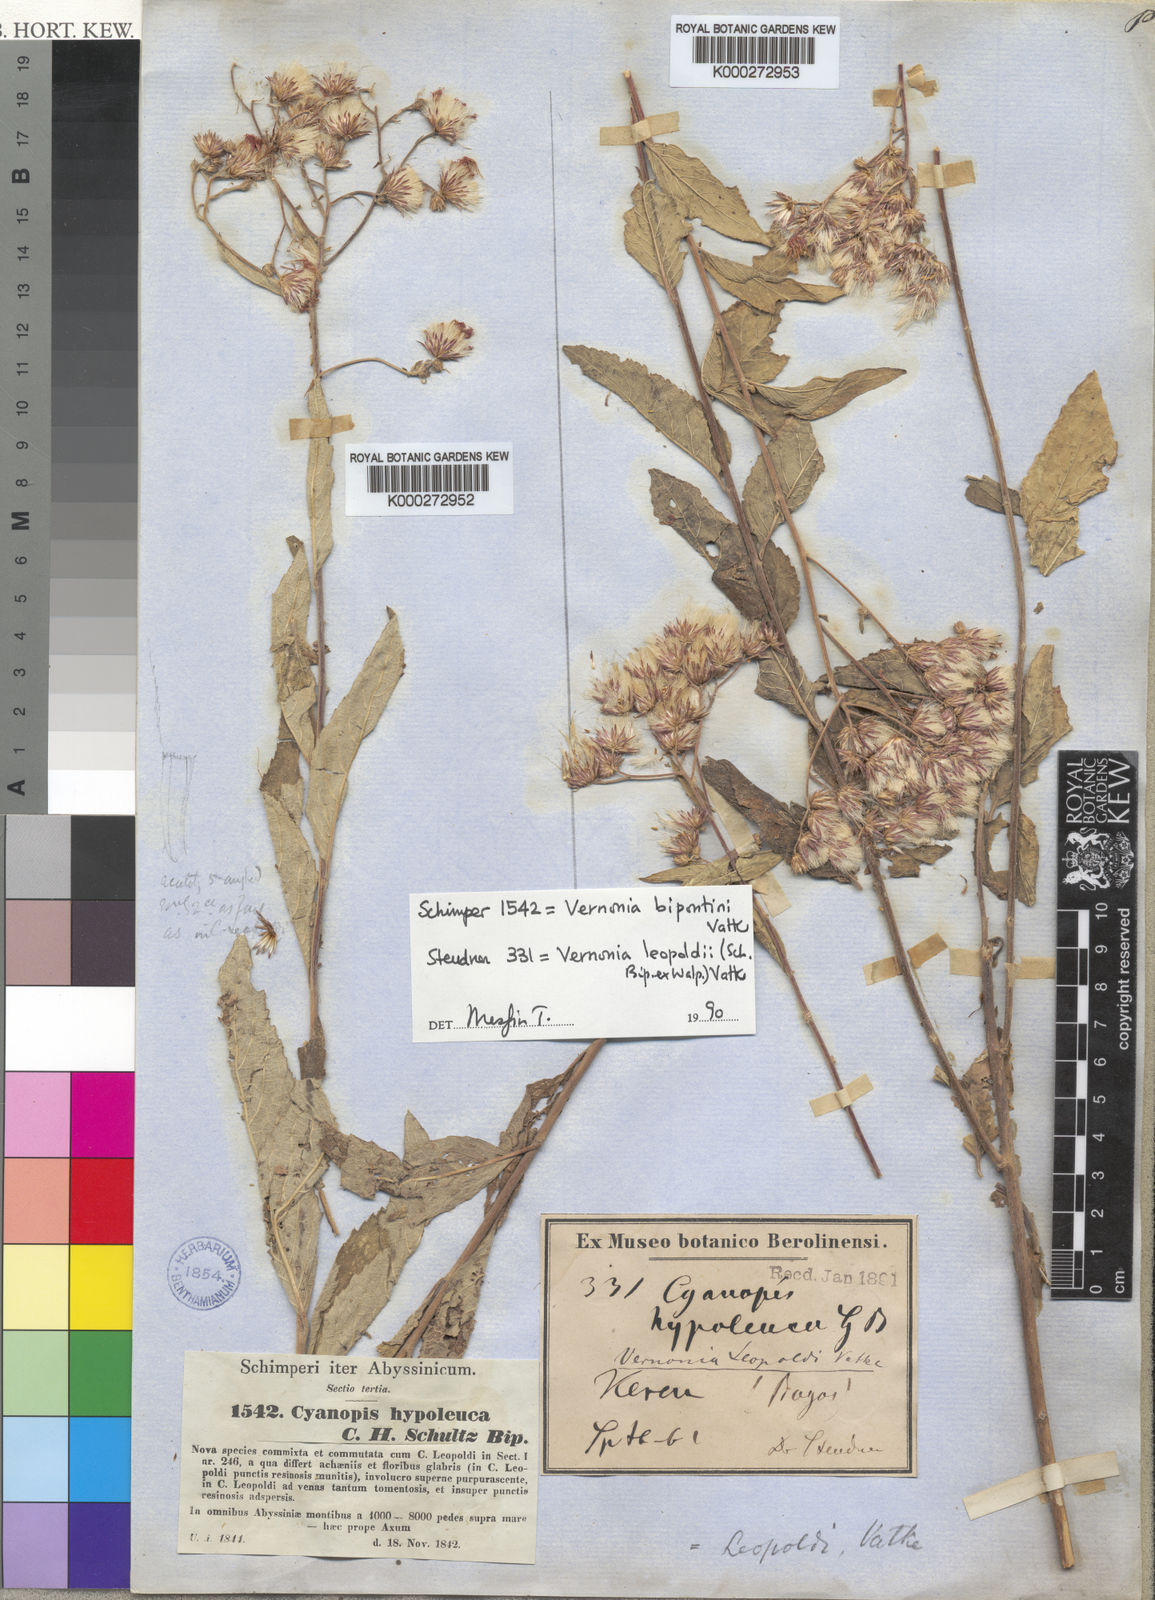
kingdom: Plantae
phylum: Tracheophyta
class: Magnoliopsida
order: Asterales
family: Asteraceae
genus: Vernonia
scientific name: Vernonia bipontini
